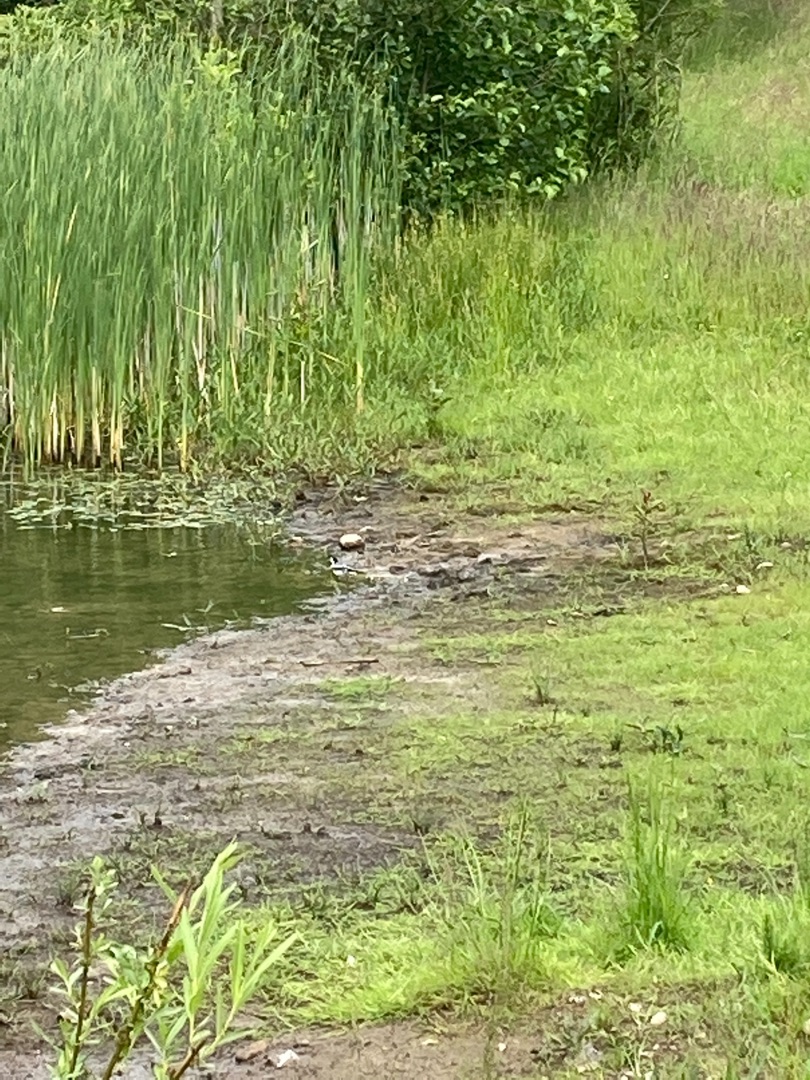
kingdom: Animalia
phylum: Chordata
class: Aves
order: Passeriformes
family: Motacillidae
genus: Motacilla
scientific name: Motacilla alba
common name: Hvid vipstjert
